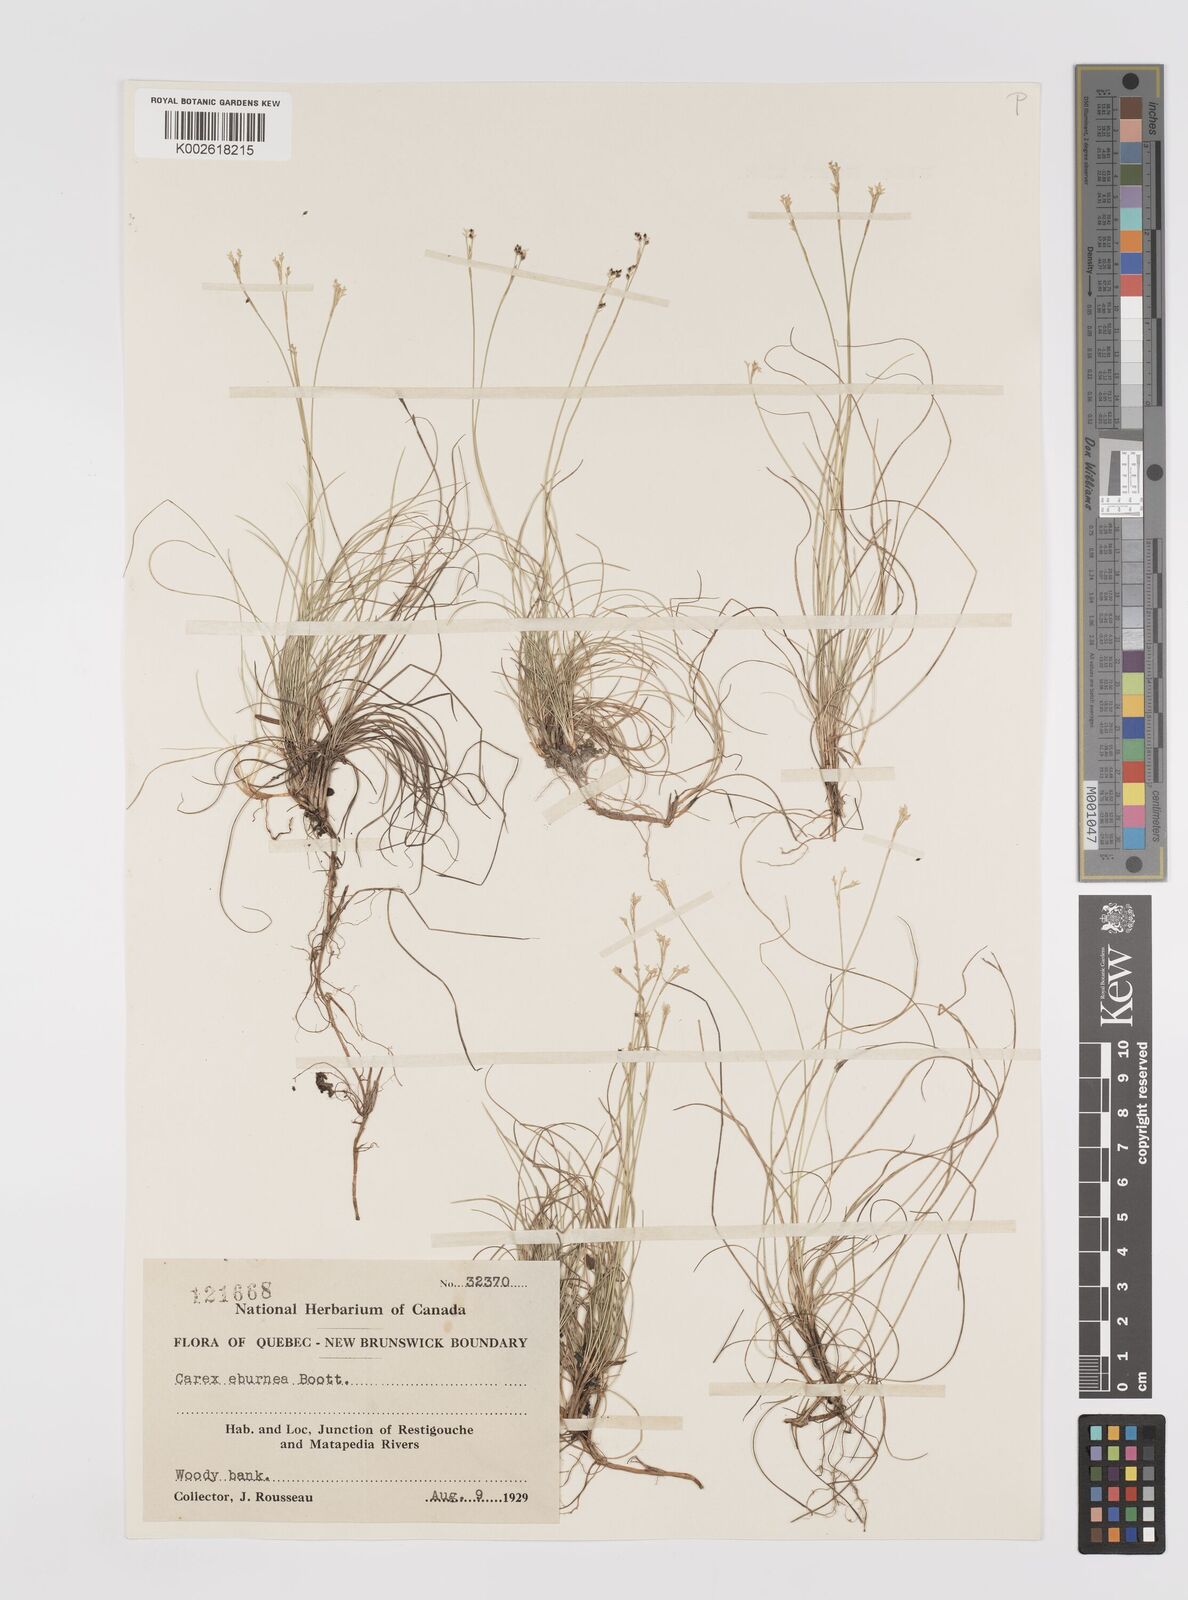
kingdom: Plantae
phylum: Tracheophyta
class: Liliopsida
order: Poales
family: Cyperaceae
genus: Carex
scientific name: Carex eburnea
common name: Bristle-leaved sedge
